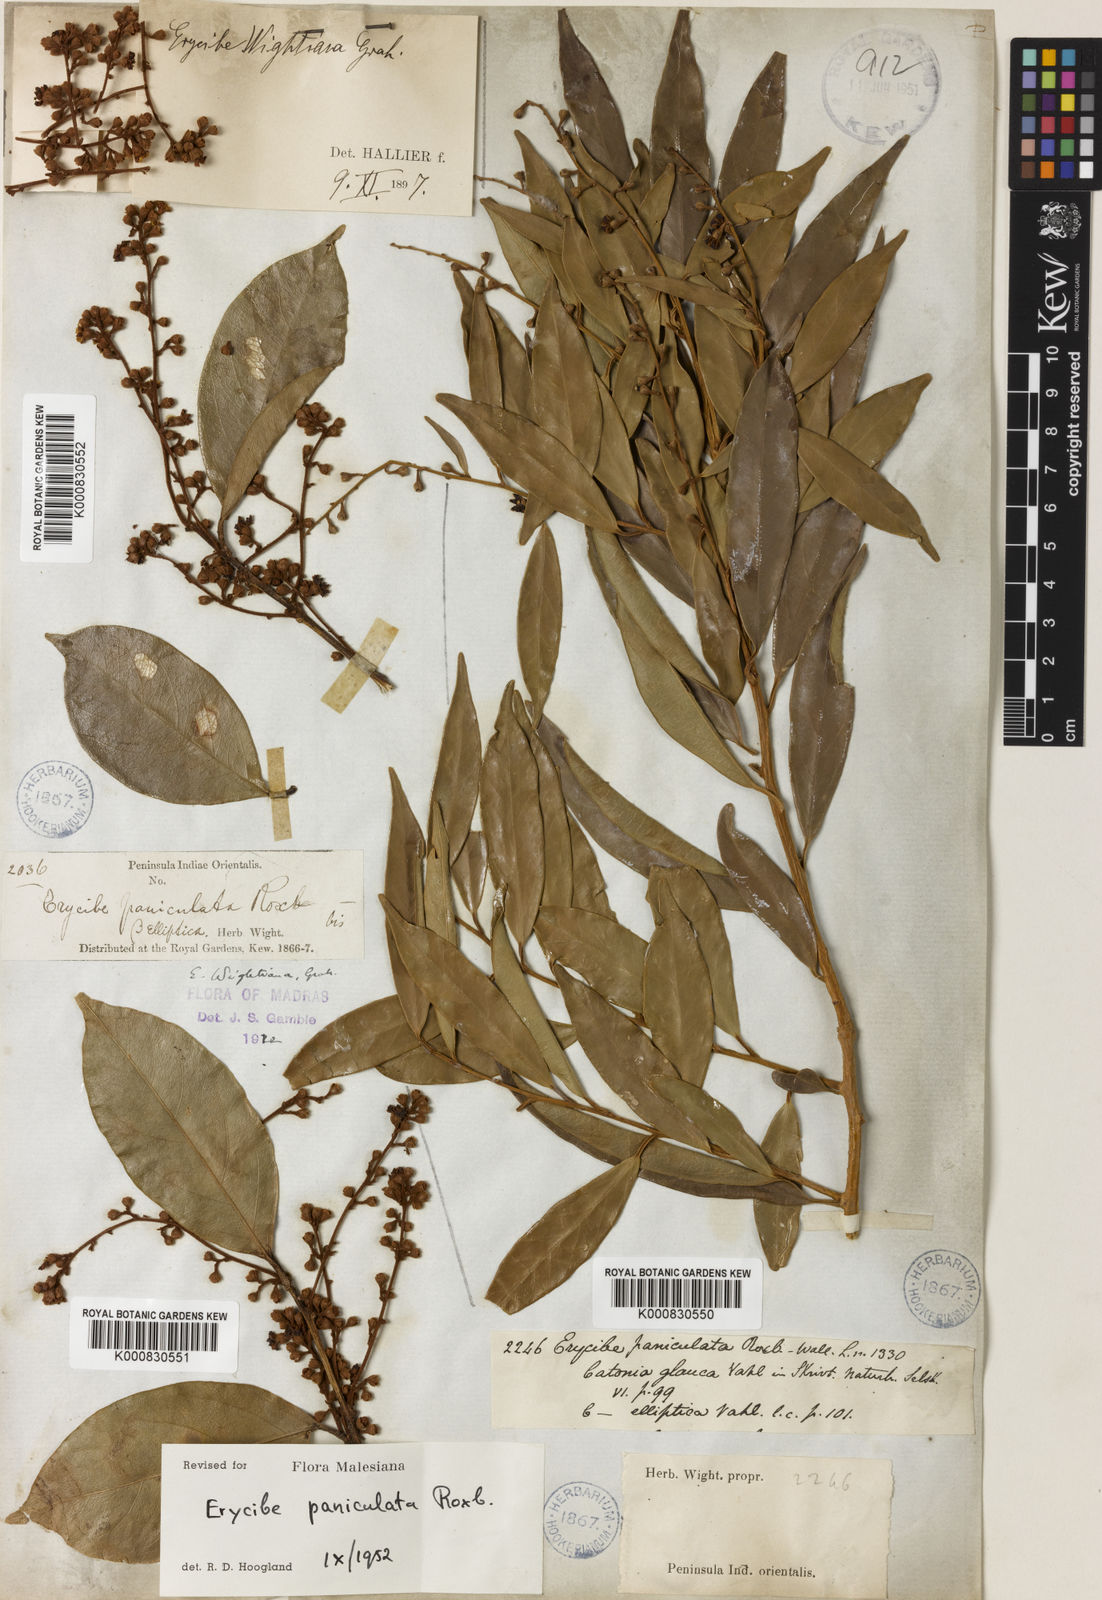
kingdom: Plantae
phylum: Tracheophyta
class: Magnoliopsida
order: Solanales
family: Convolvulaceae
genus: Erycibe
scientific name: Erycibe paniculata
